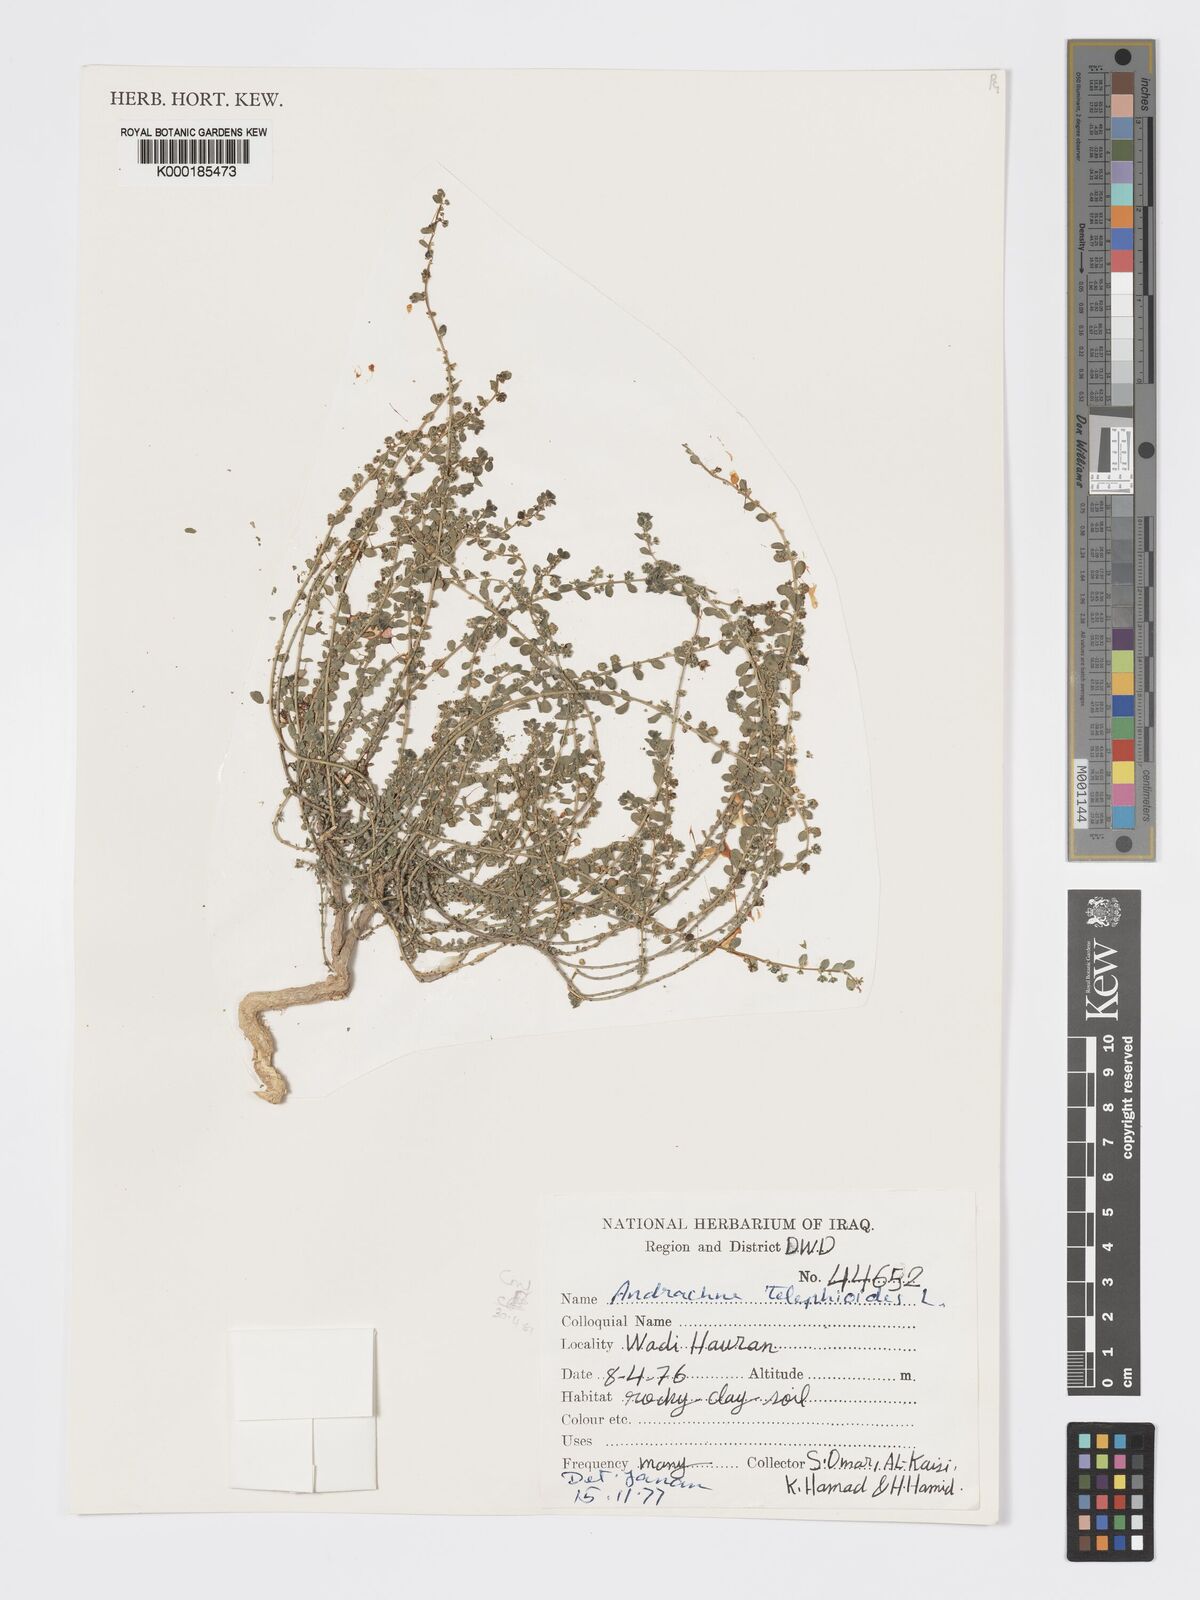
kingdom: Plantae
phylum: Tracheophyta
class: Magnoliopsida
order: Malpighiales
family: Phyllanthaceae
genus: Andrachne
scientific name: Andrachne telephioides
